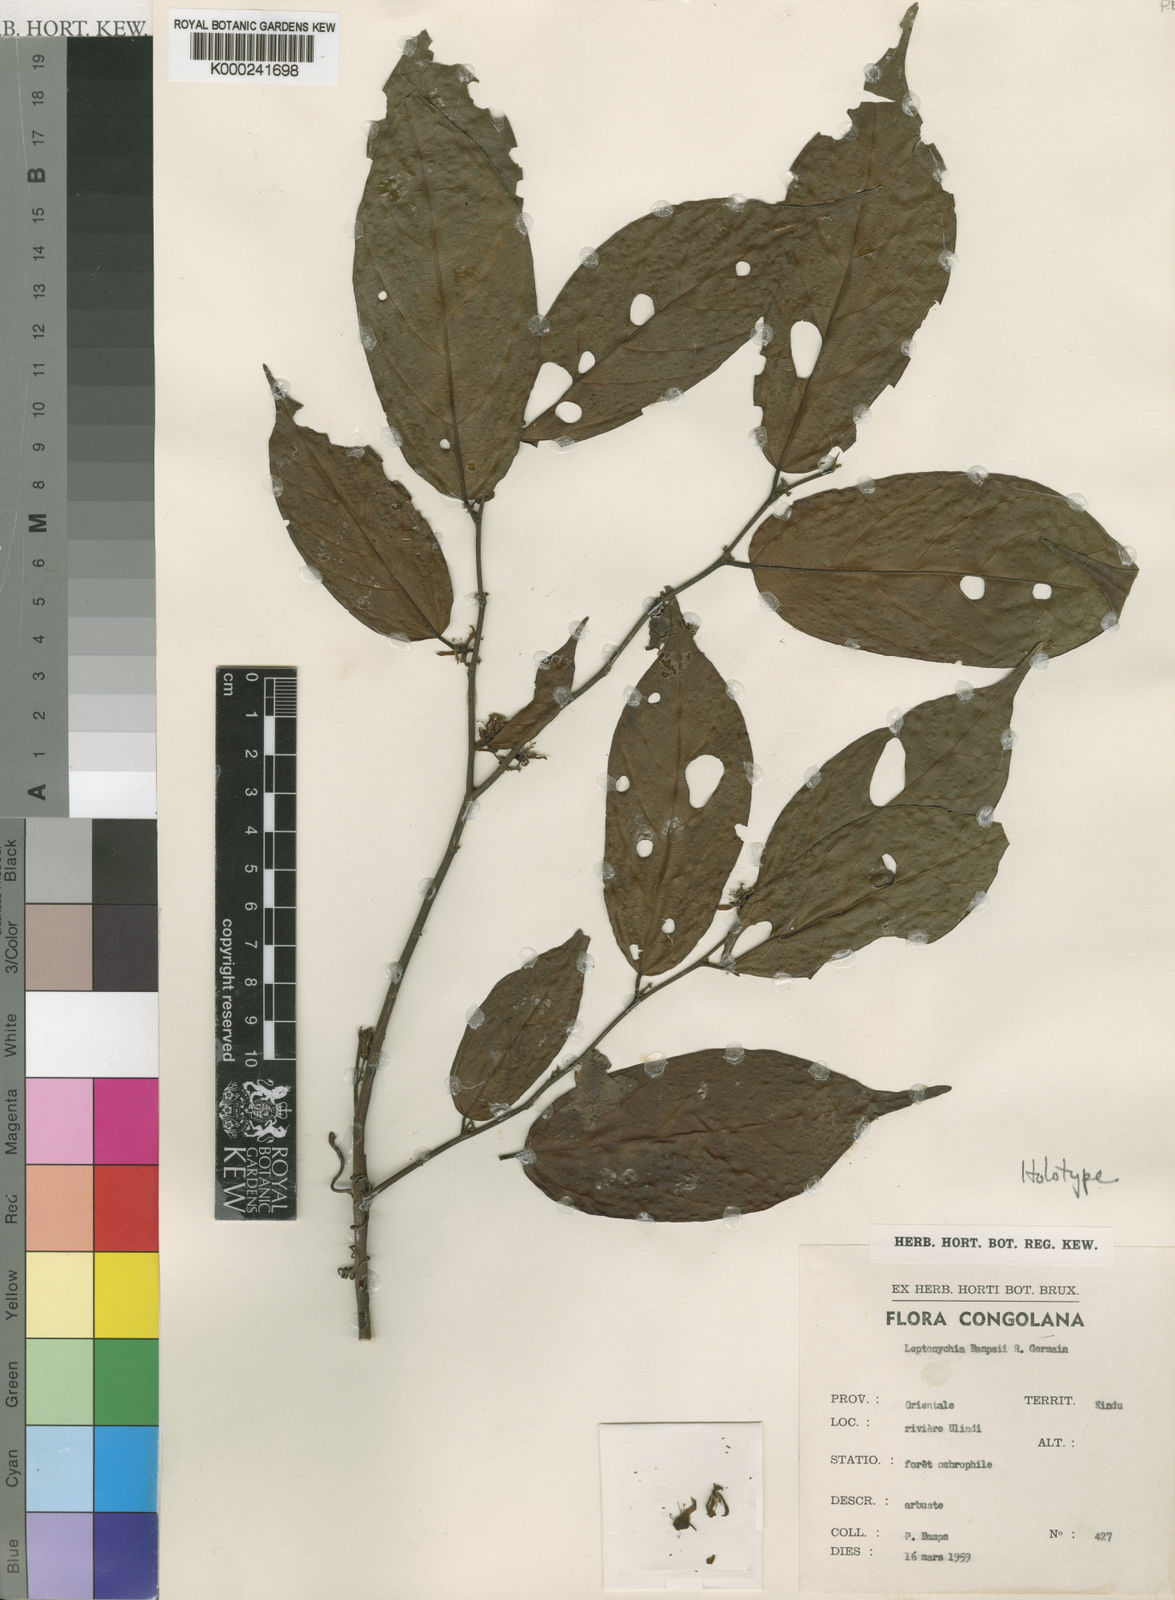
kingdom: Plantae
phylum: Tracheophyta
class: Magnoliopsida
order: Malvales
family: Malvaceae
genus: Leptonychia
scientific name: Leptonychia bampsii
